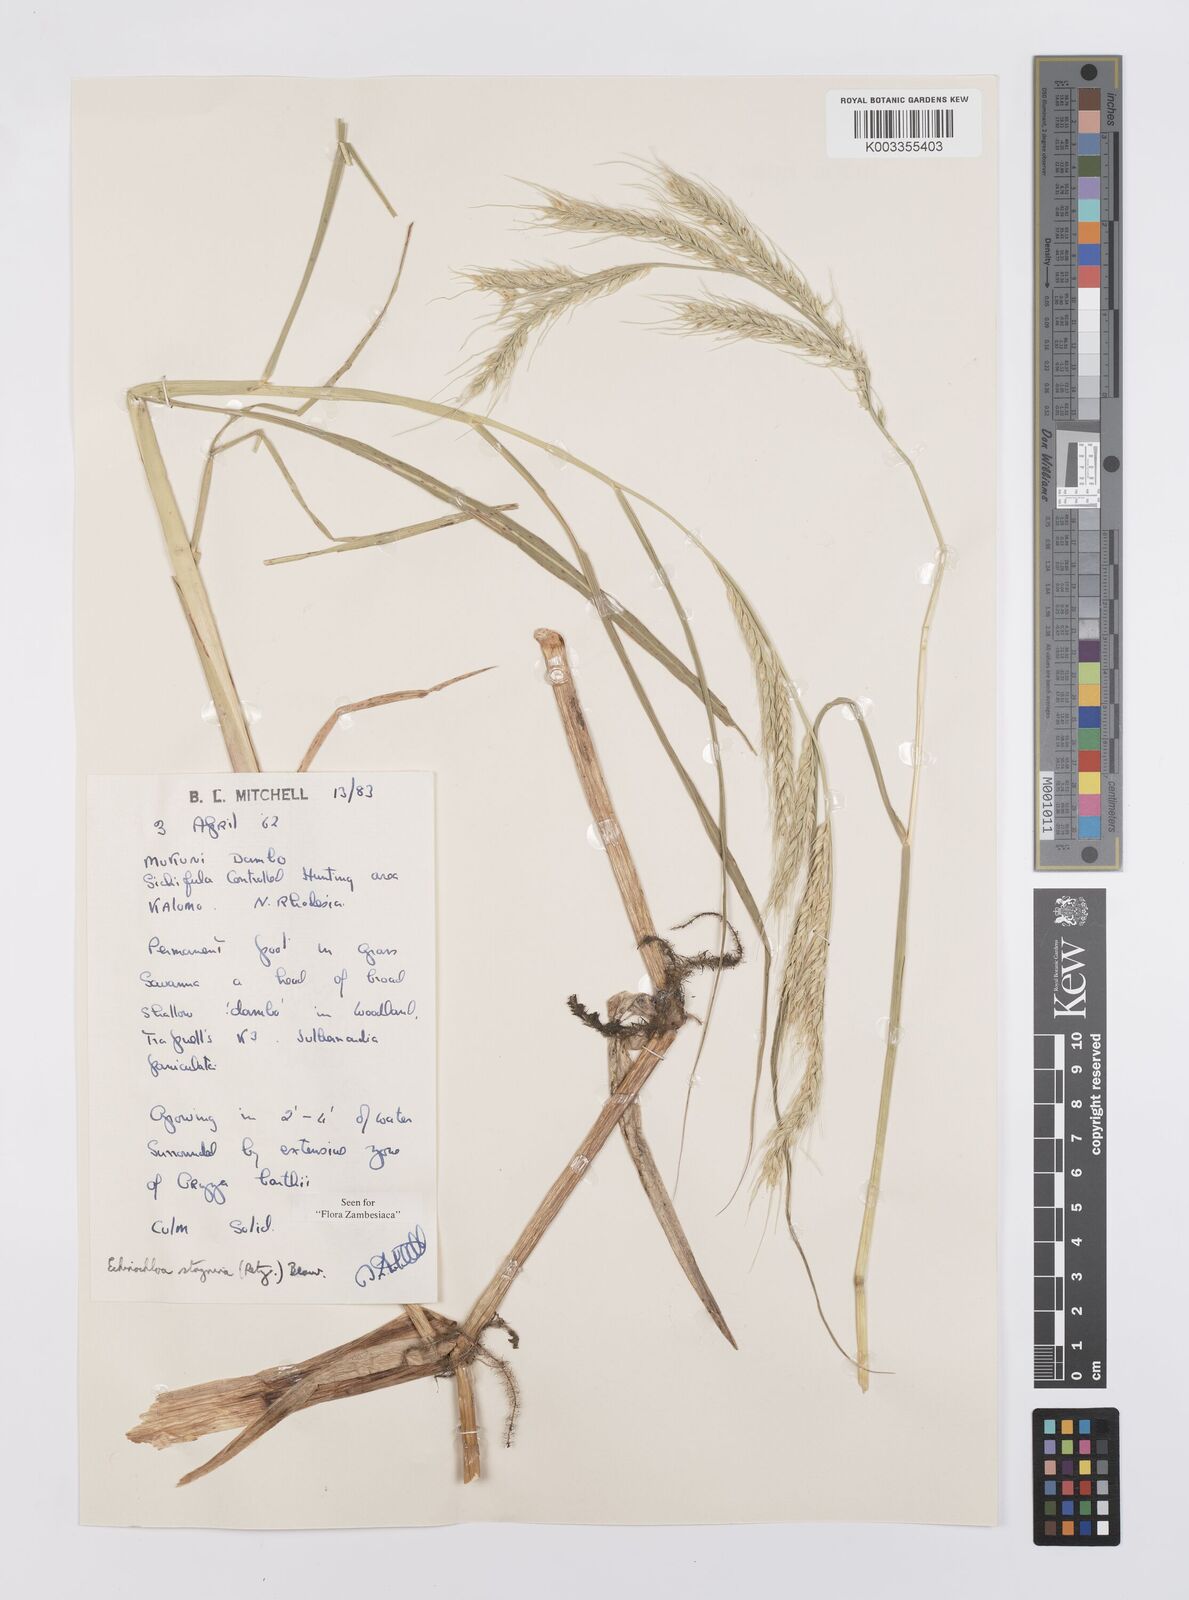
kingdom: Plantae
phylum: Tracheophyta
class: Liliopsida
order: Poales
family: Poaceae
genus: Echinochloa
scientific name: Echinochloa stagnina
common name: Burgu grass
